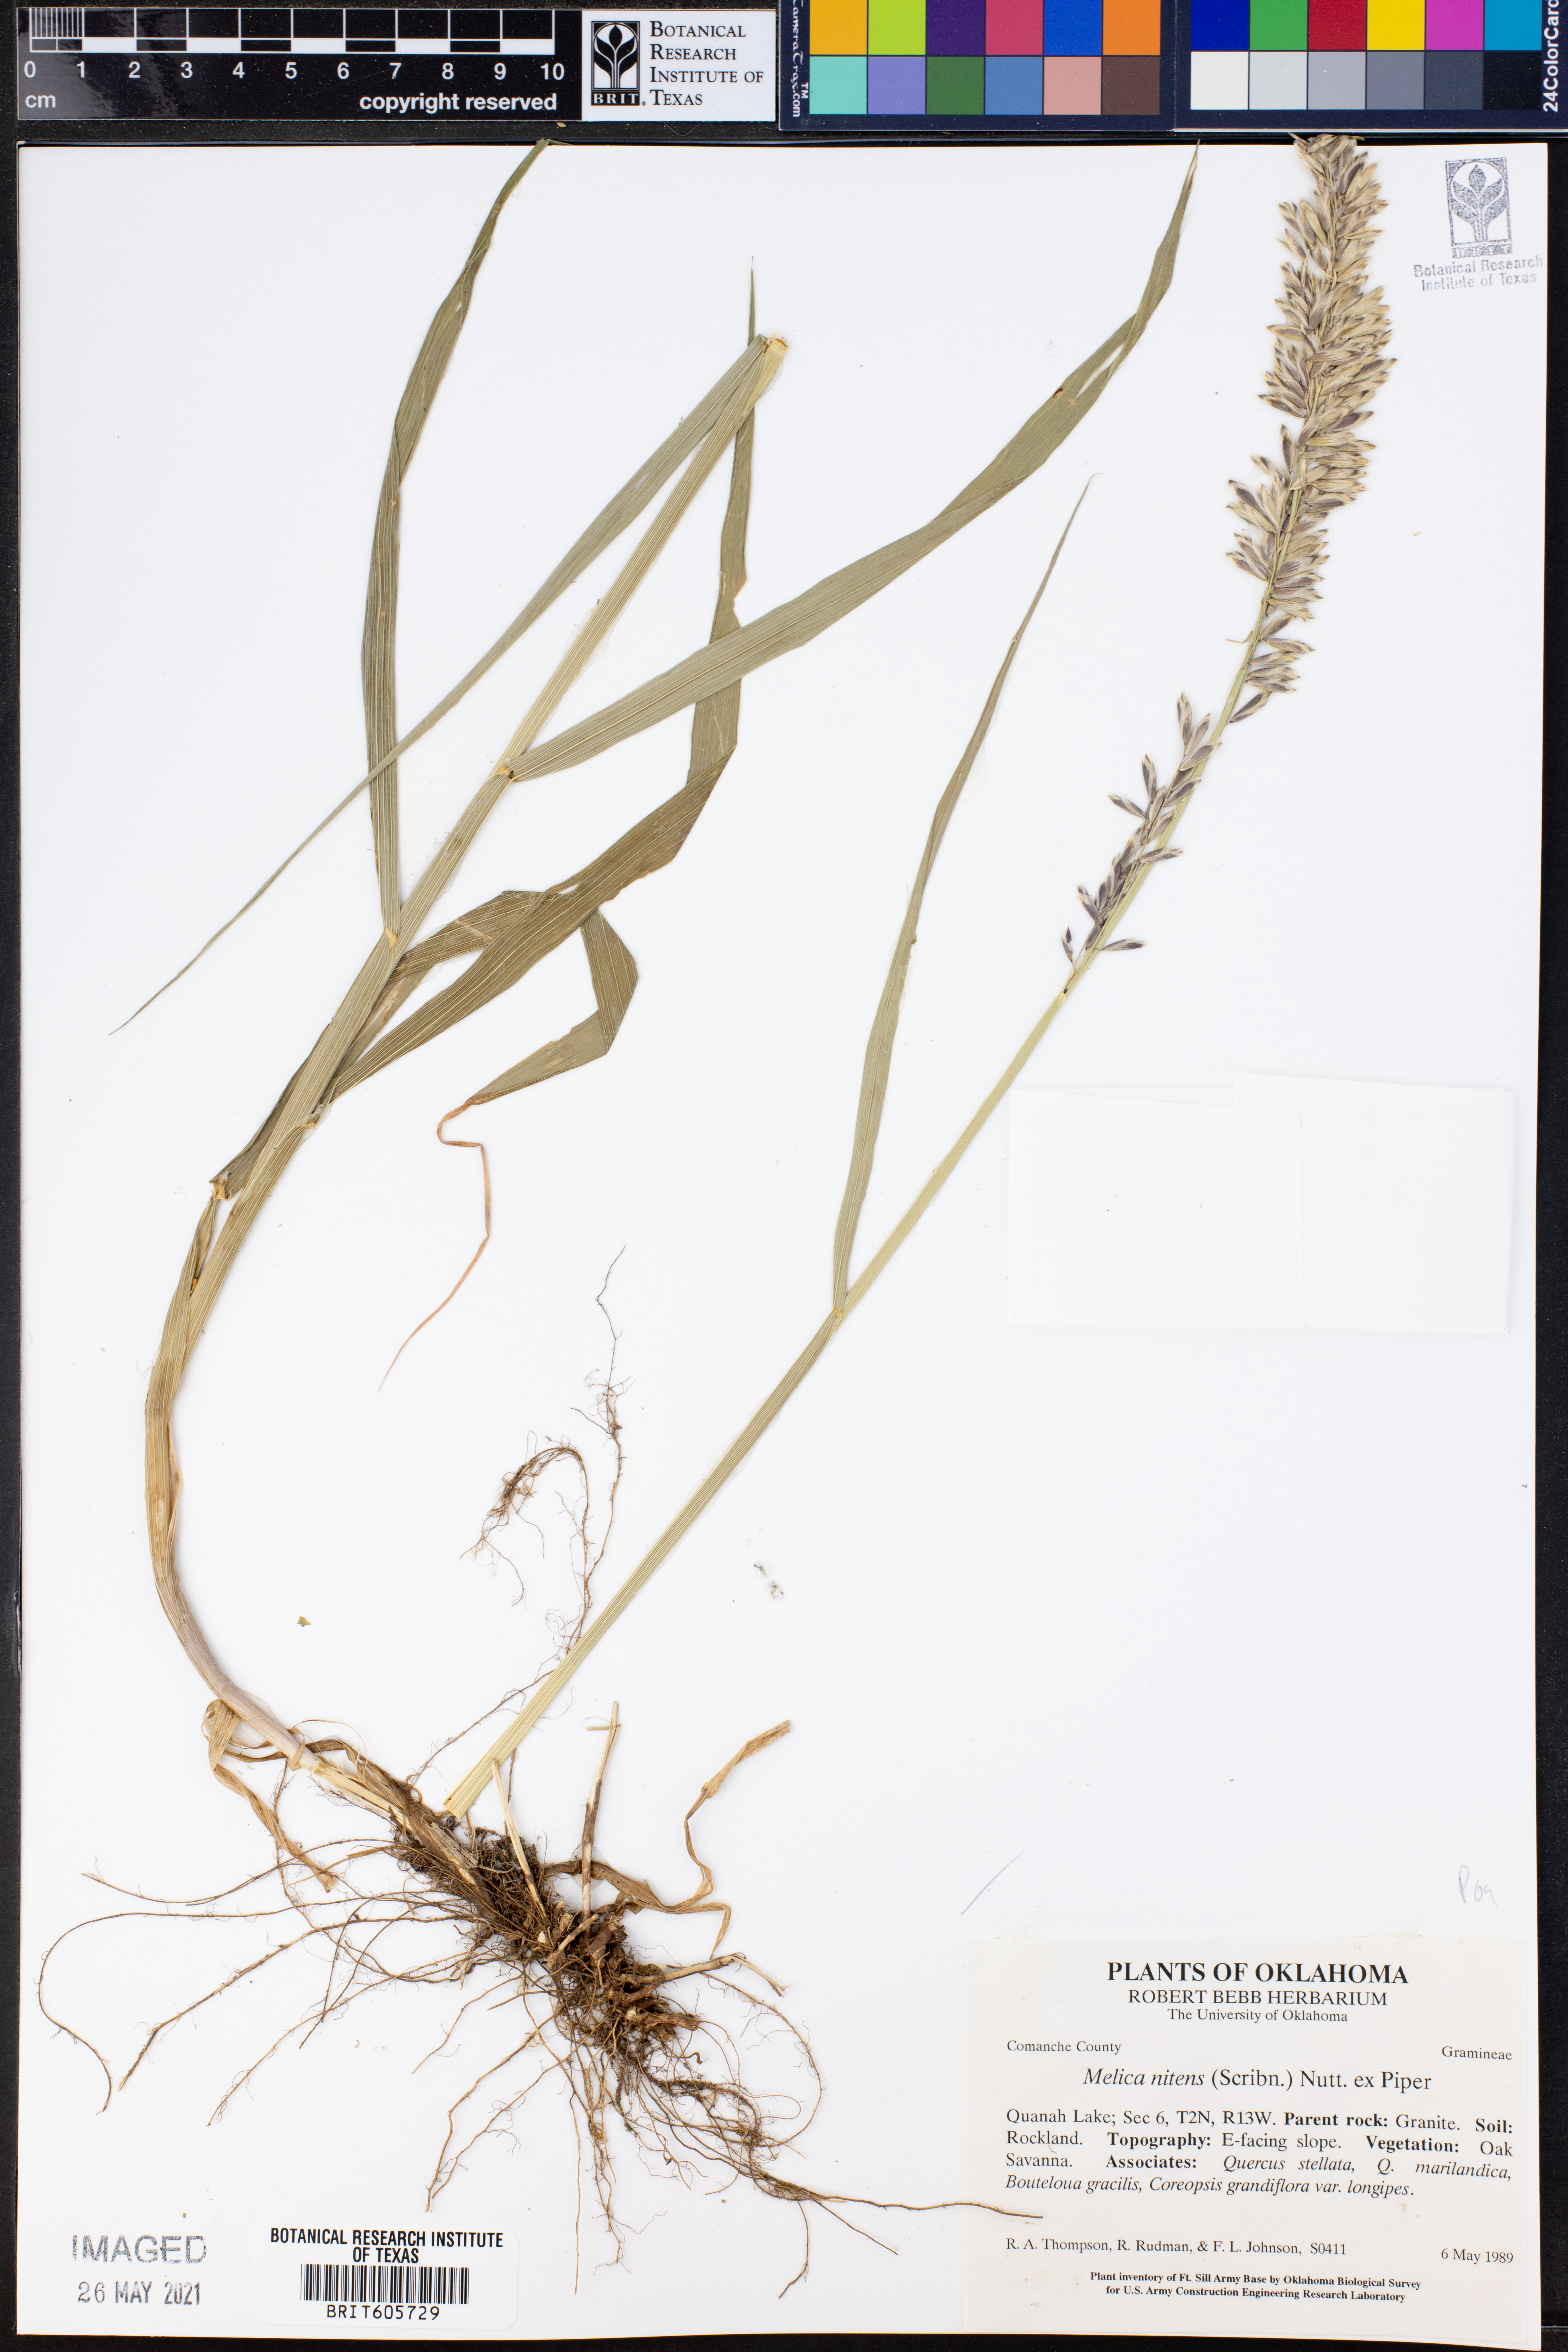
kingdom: Plantae
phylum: Tracheophyta
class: Liliopsida
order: Poales
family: Poaceae
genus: Melica
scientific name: Melica nitens
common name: Three-flower melic
